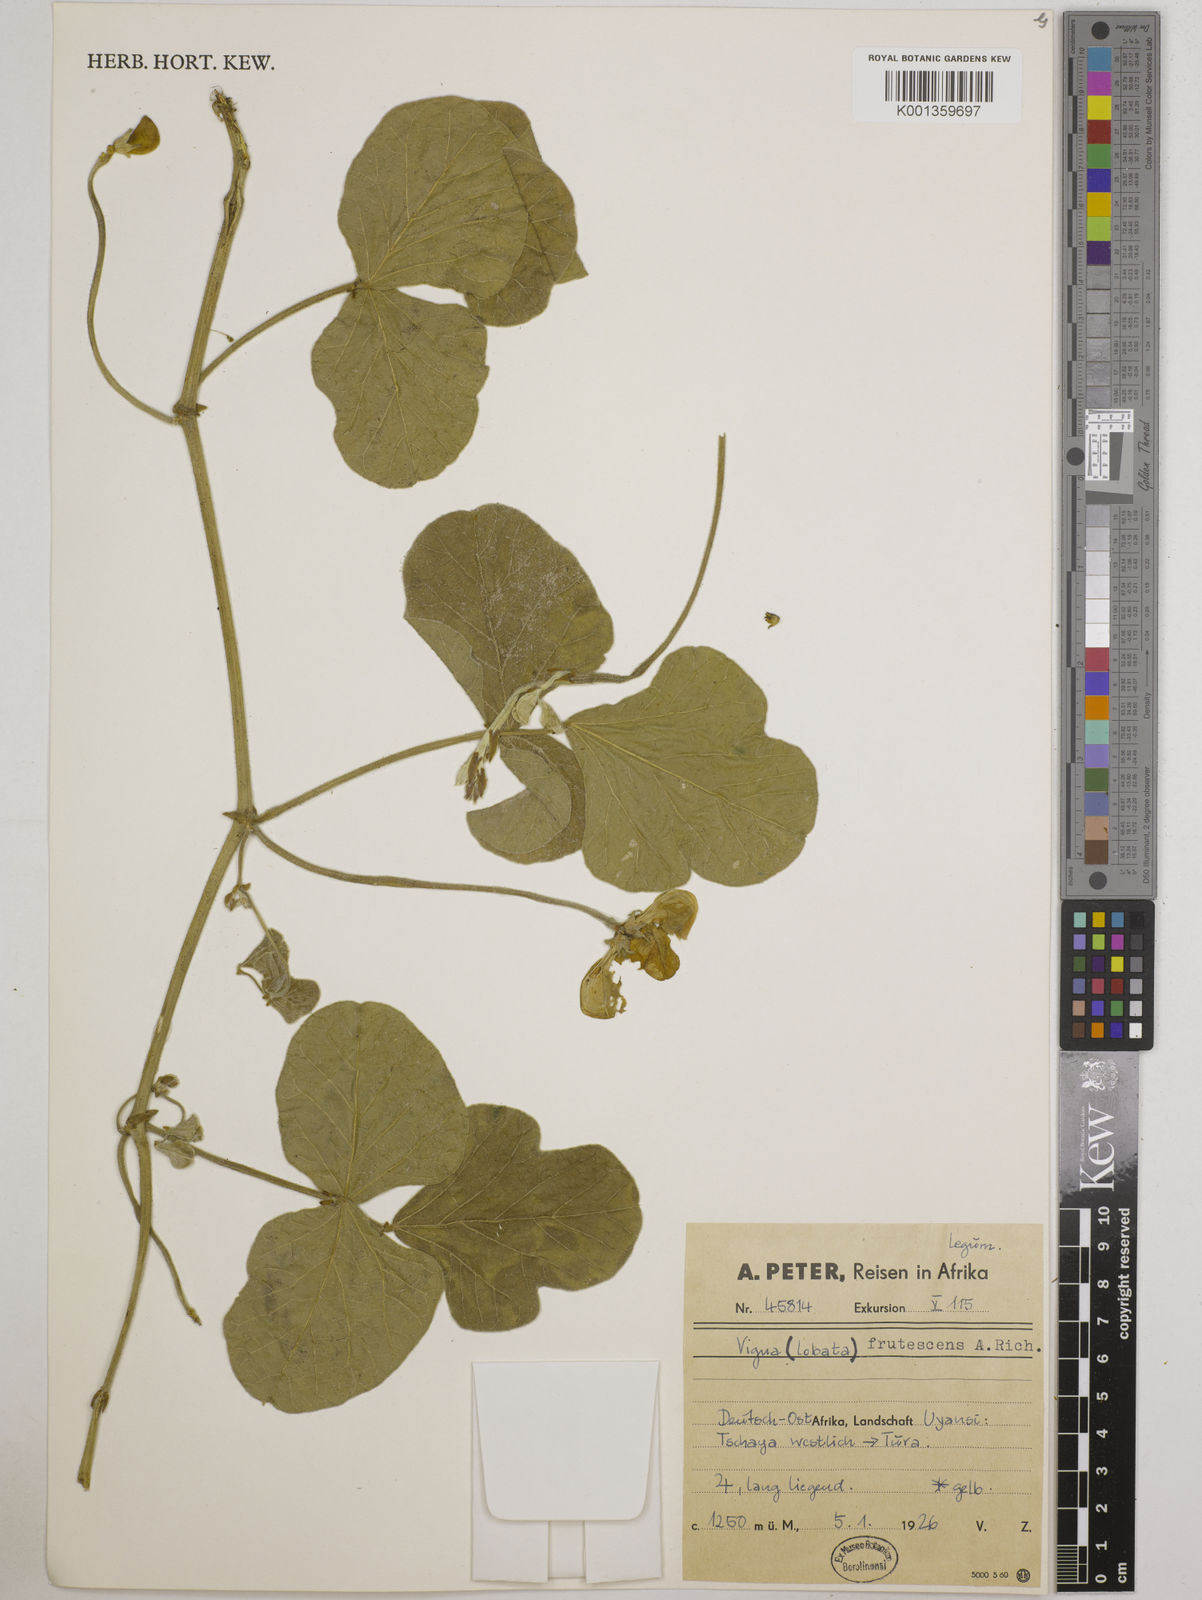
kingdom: Plantae
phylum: Tracheophyta
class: Magnoliopsida
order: Fabales
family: Fabaceae
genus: Vigna
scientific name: Vigna frutescens
